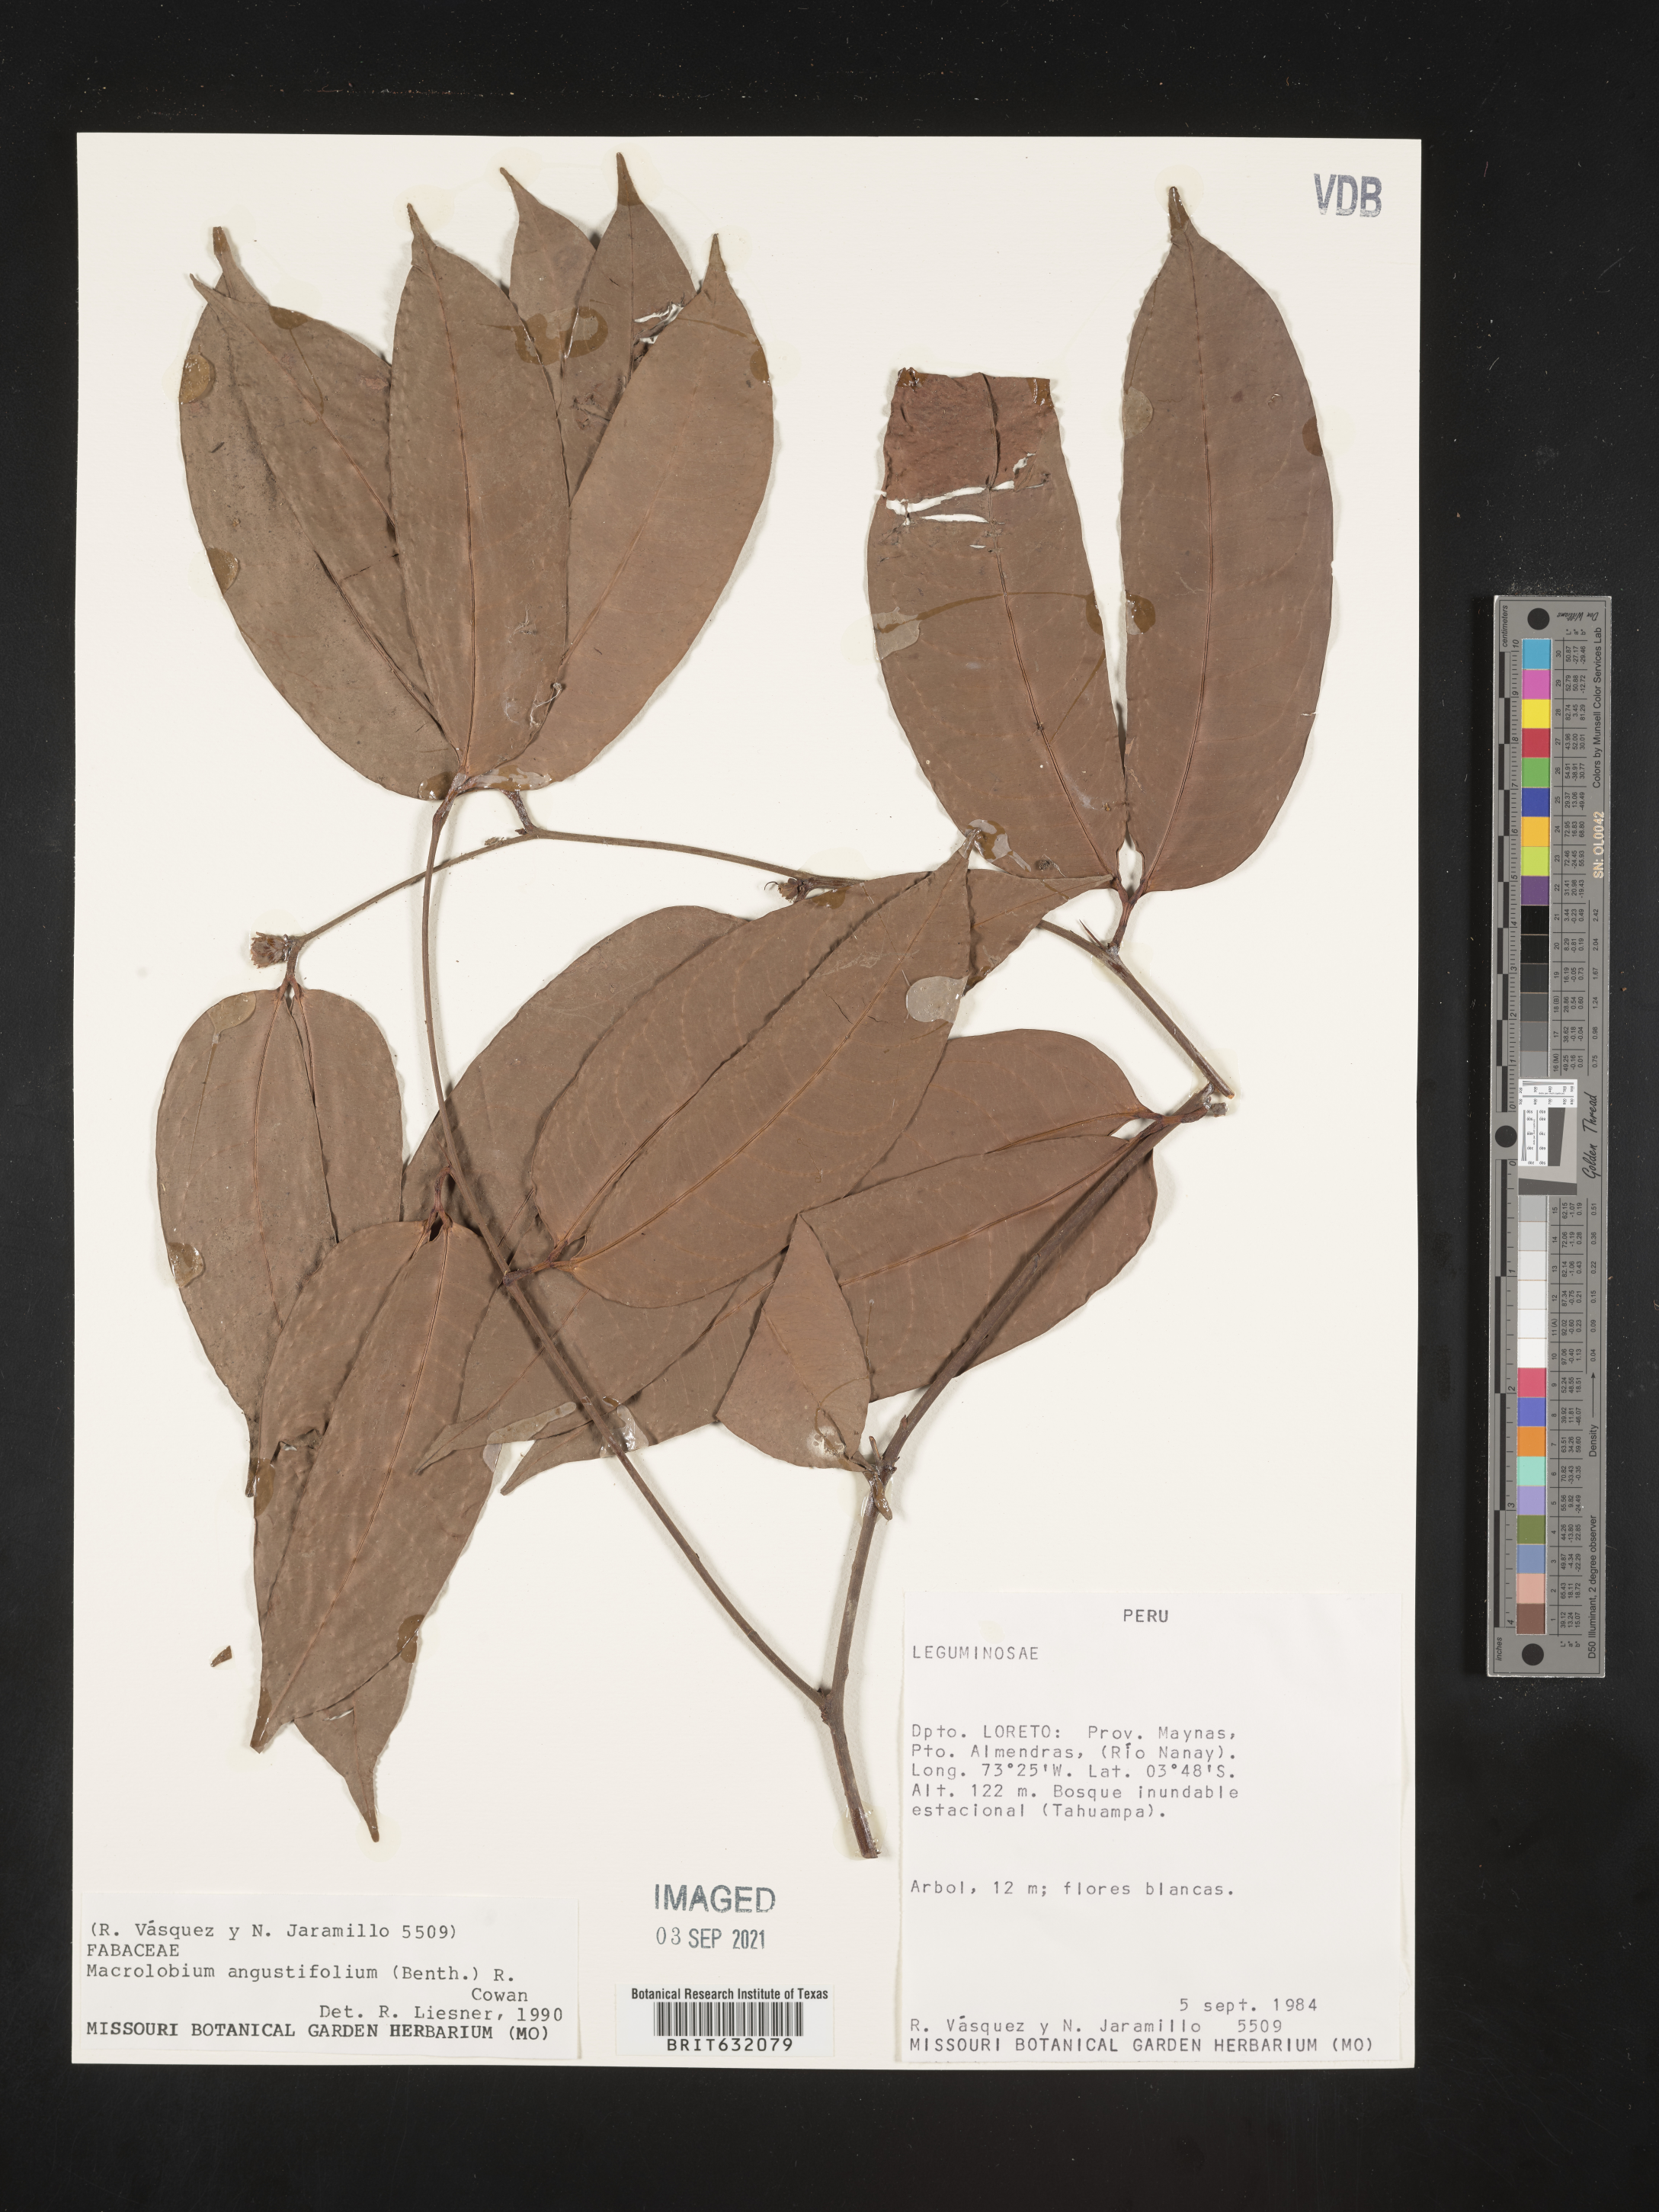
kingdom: Plantae
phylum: Tracheophyta
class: Magnoliopsida
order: Fabales
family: Fabaceae
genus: Macrolobium
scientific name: Macrolobium
